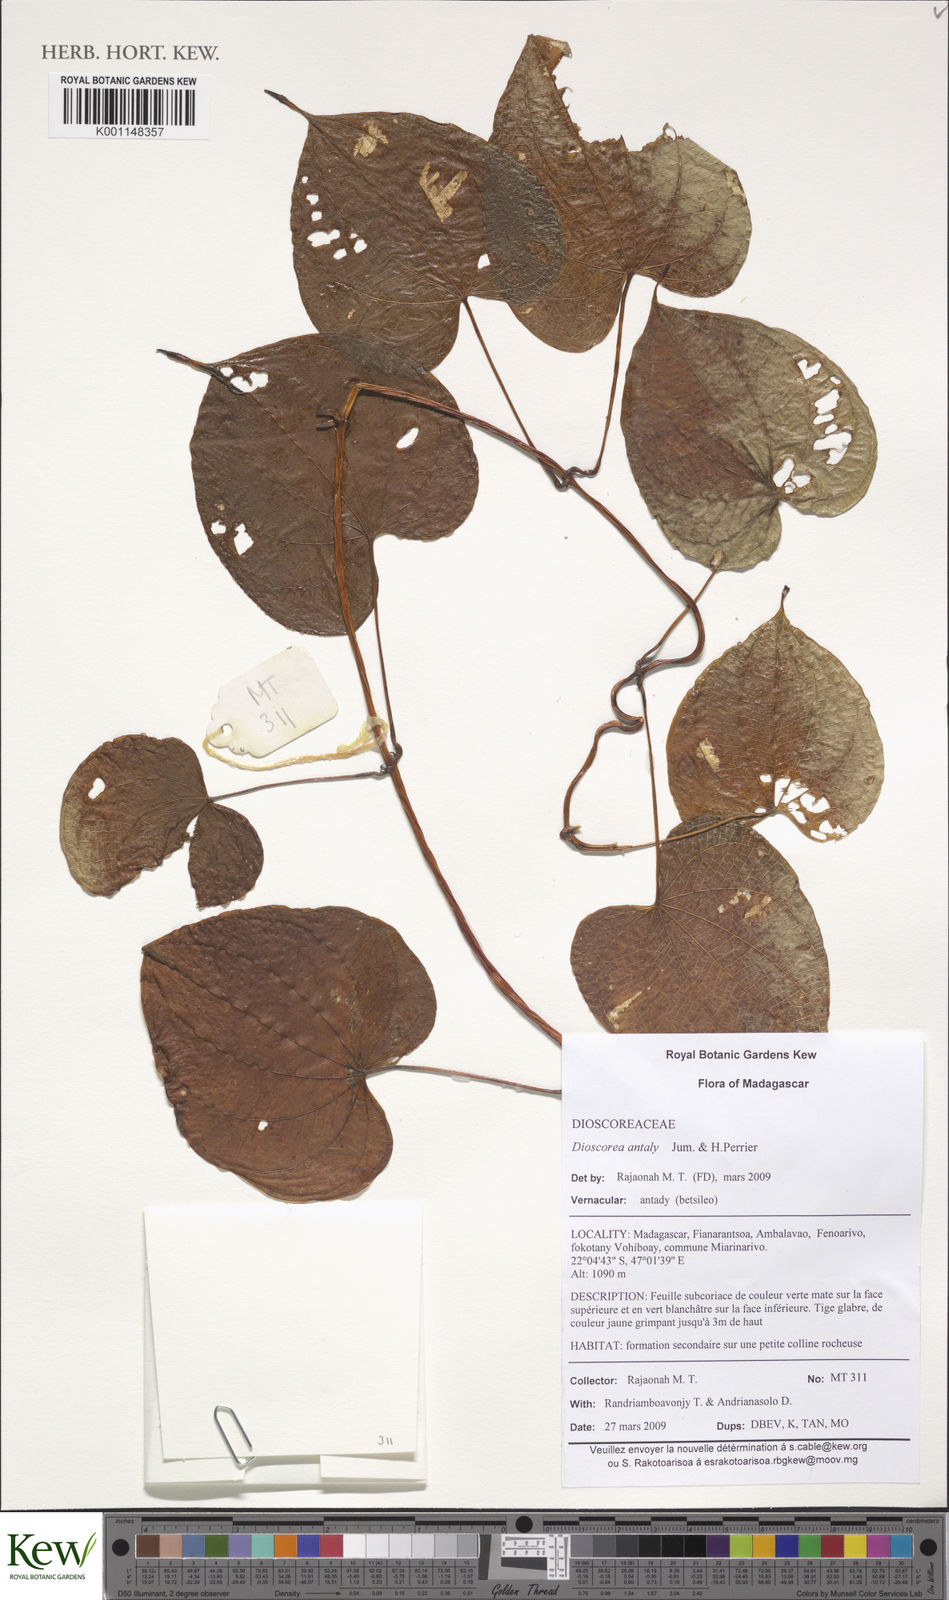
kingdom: Plantae
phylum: Tracheophyta
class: Liliopsida
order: Dioscoreales
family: Dioscoreaceae
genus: Dioscorea
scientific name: Dioscorea antaly
